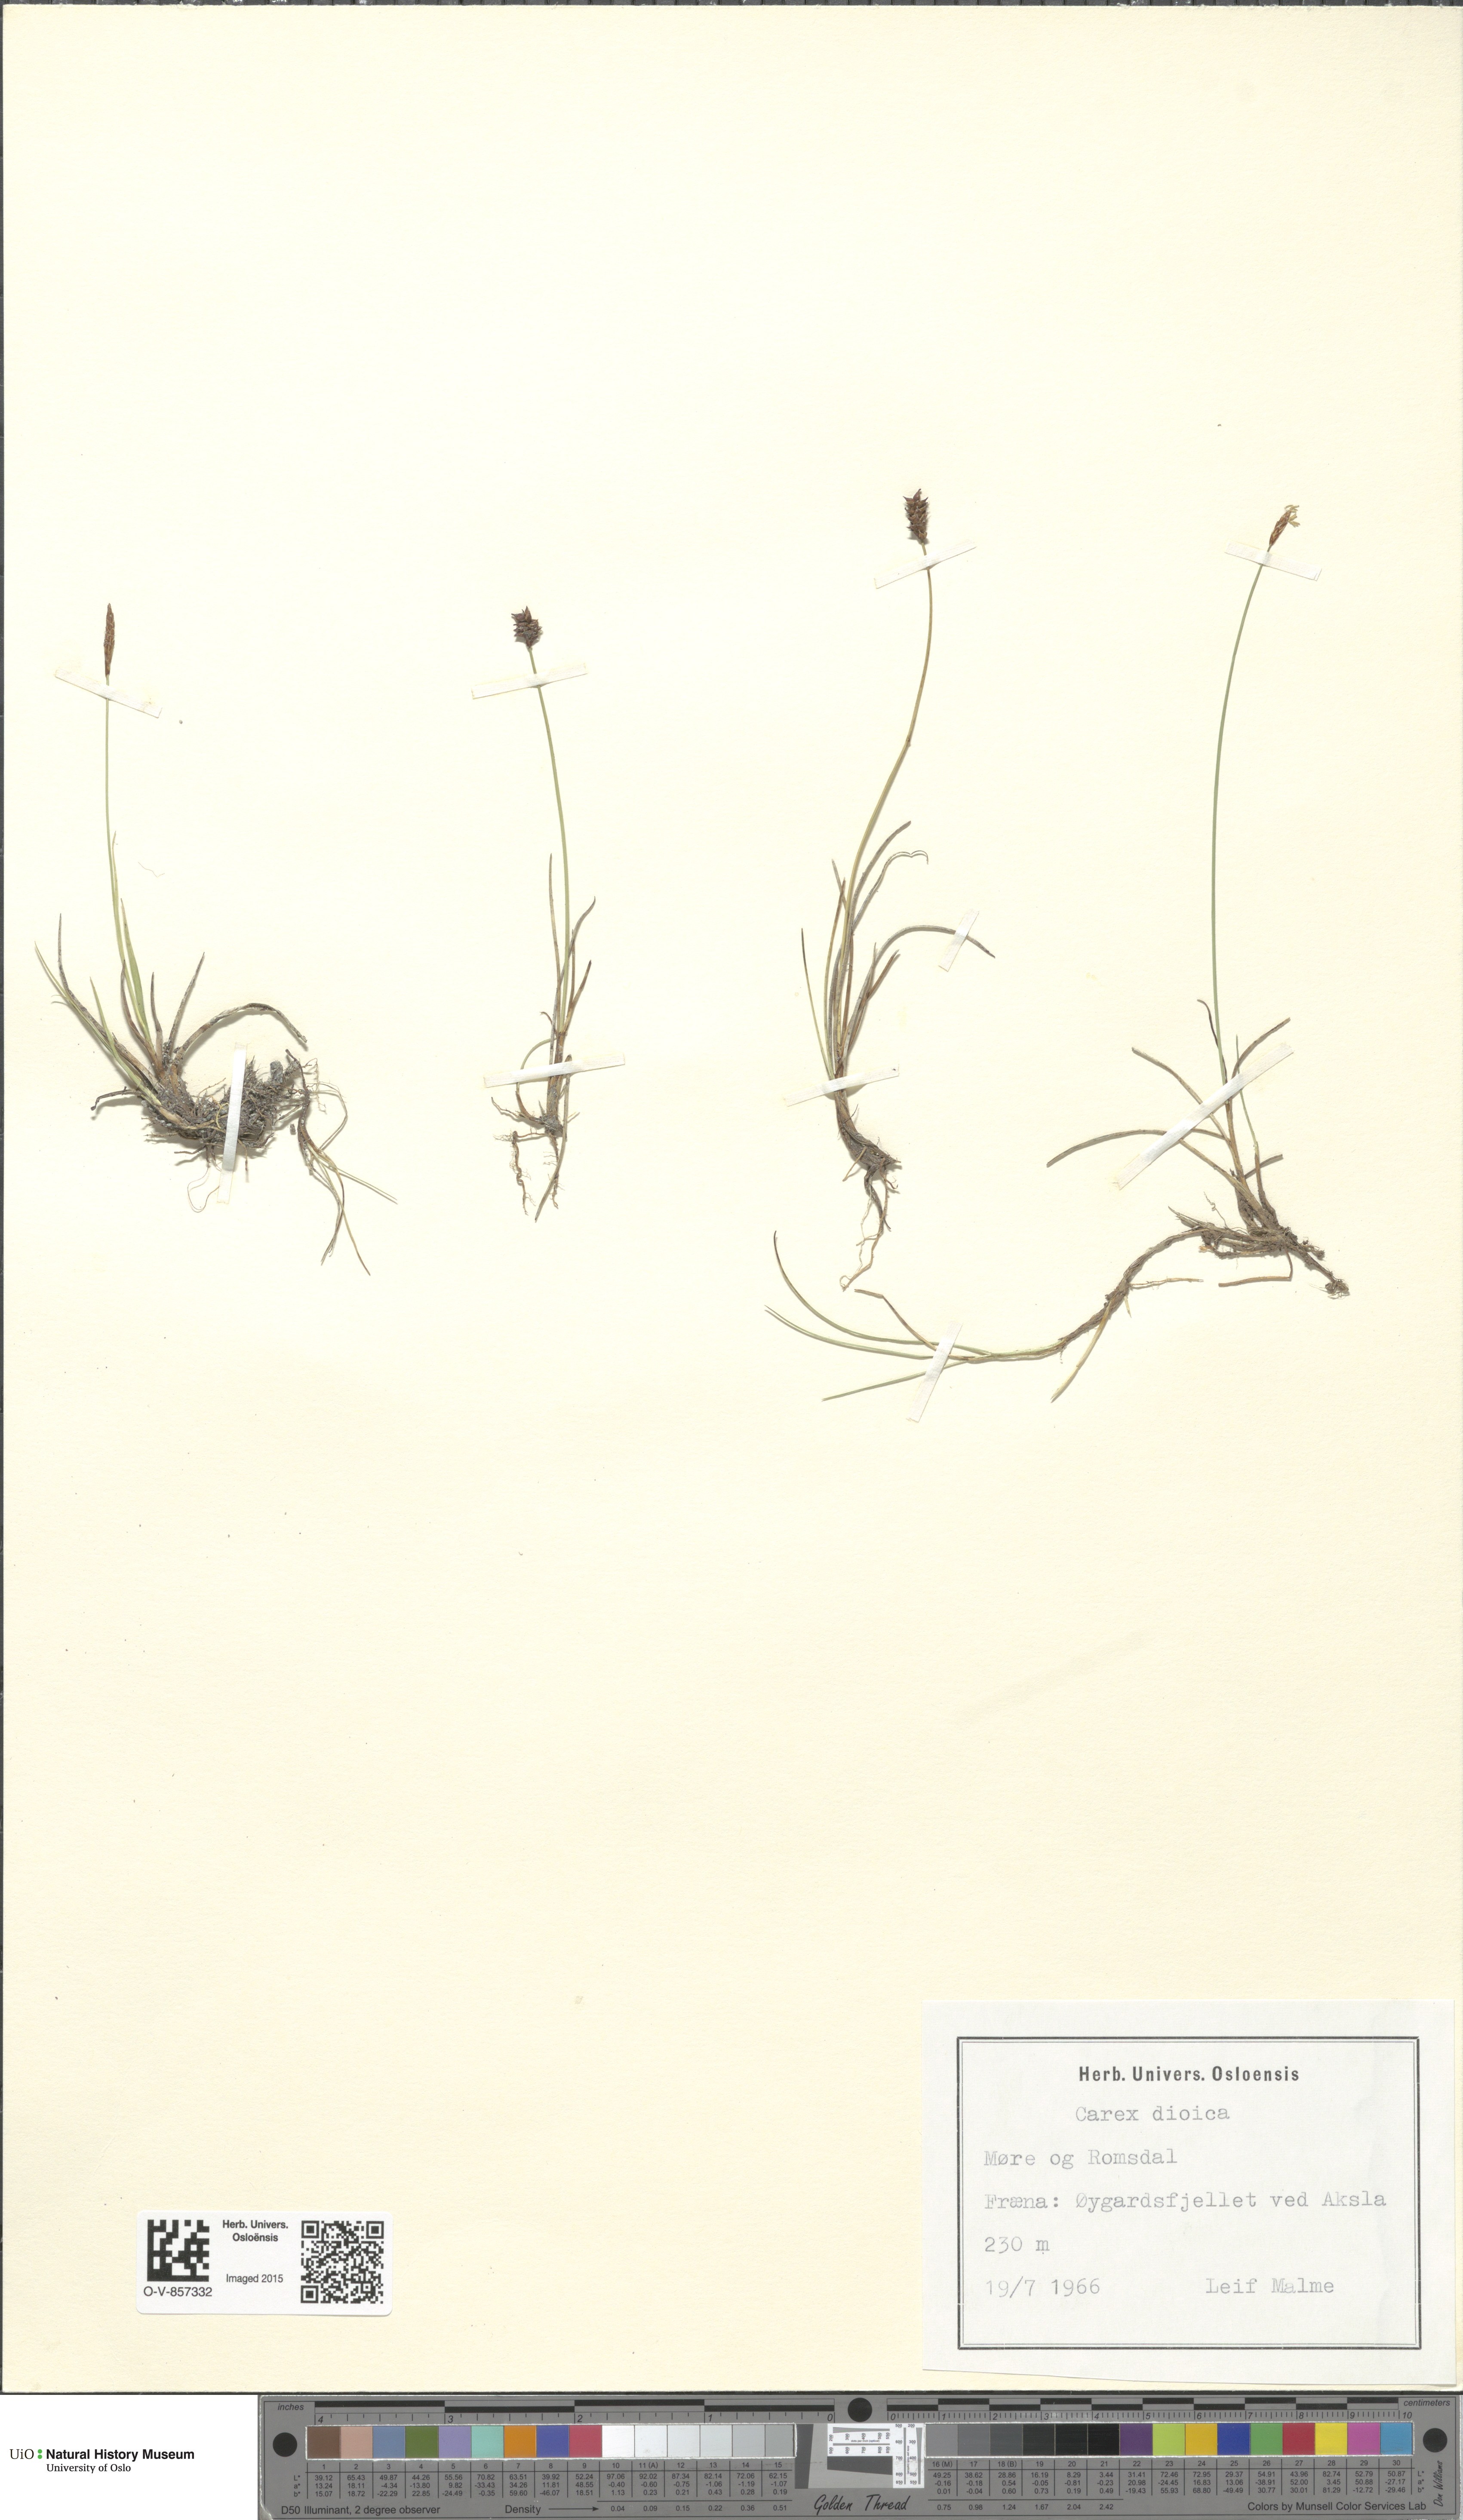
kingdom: Plantae
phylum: Tracheophyta
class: Liliopsida
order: Poales
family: Cyperaceae
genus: Carex
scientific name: Carex dioica
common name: Dioecious sedge
